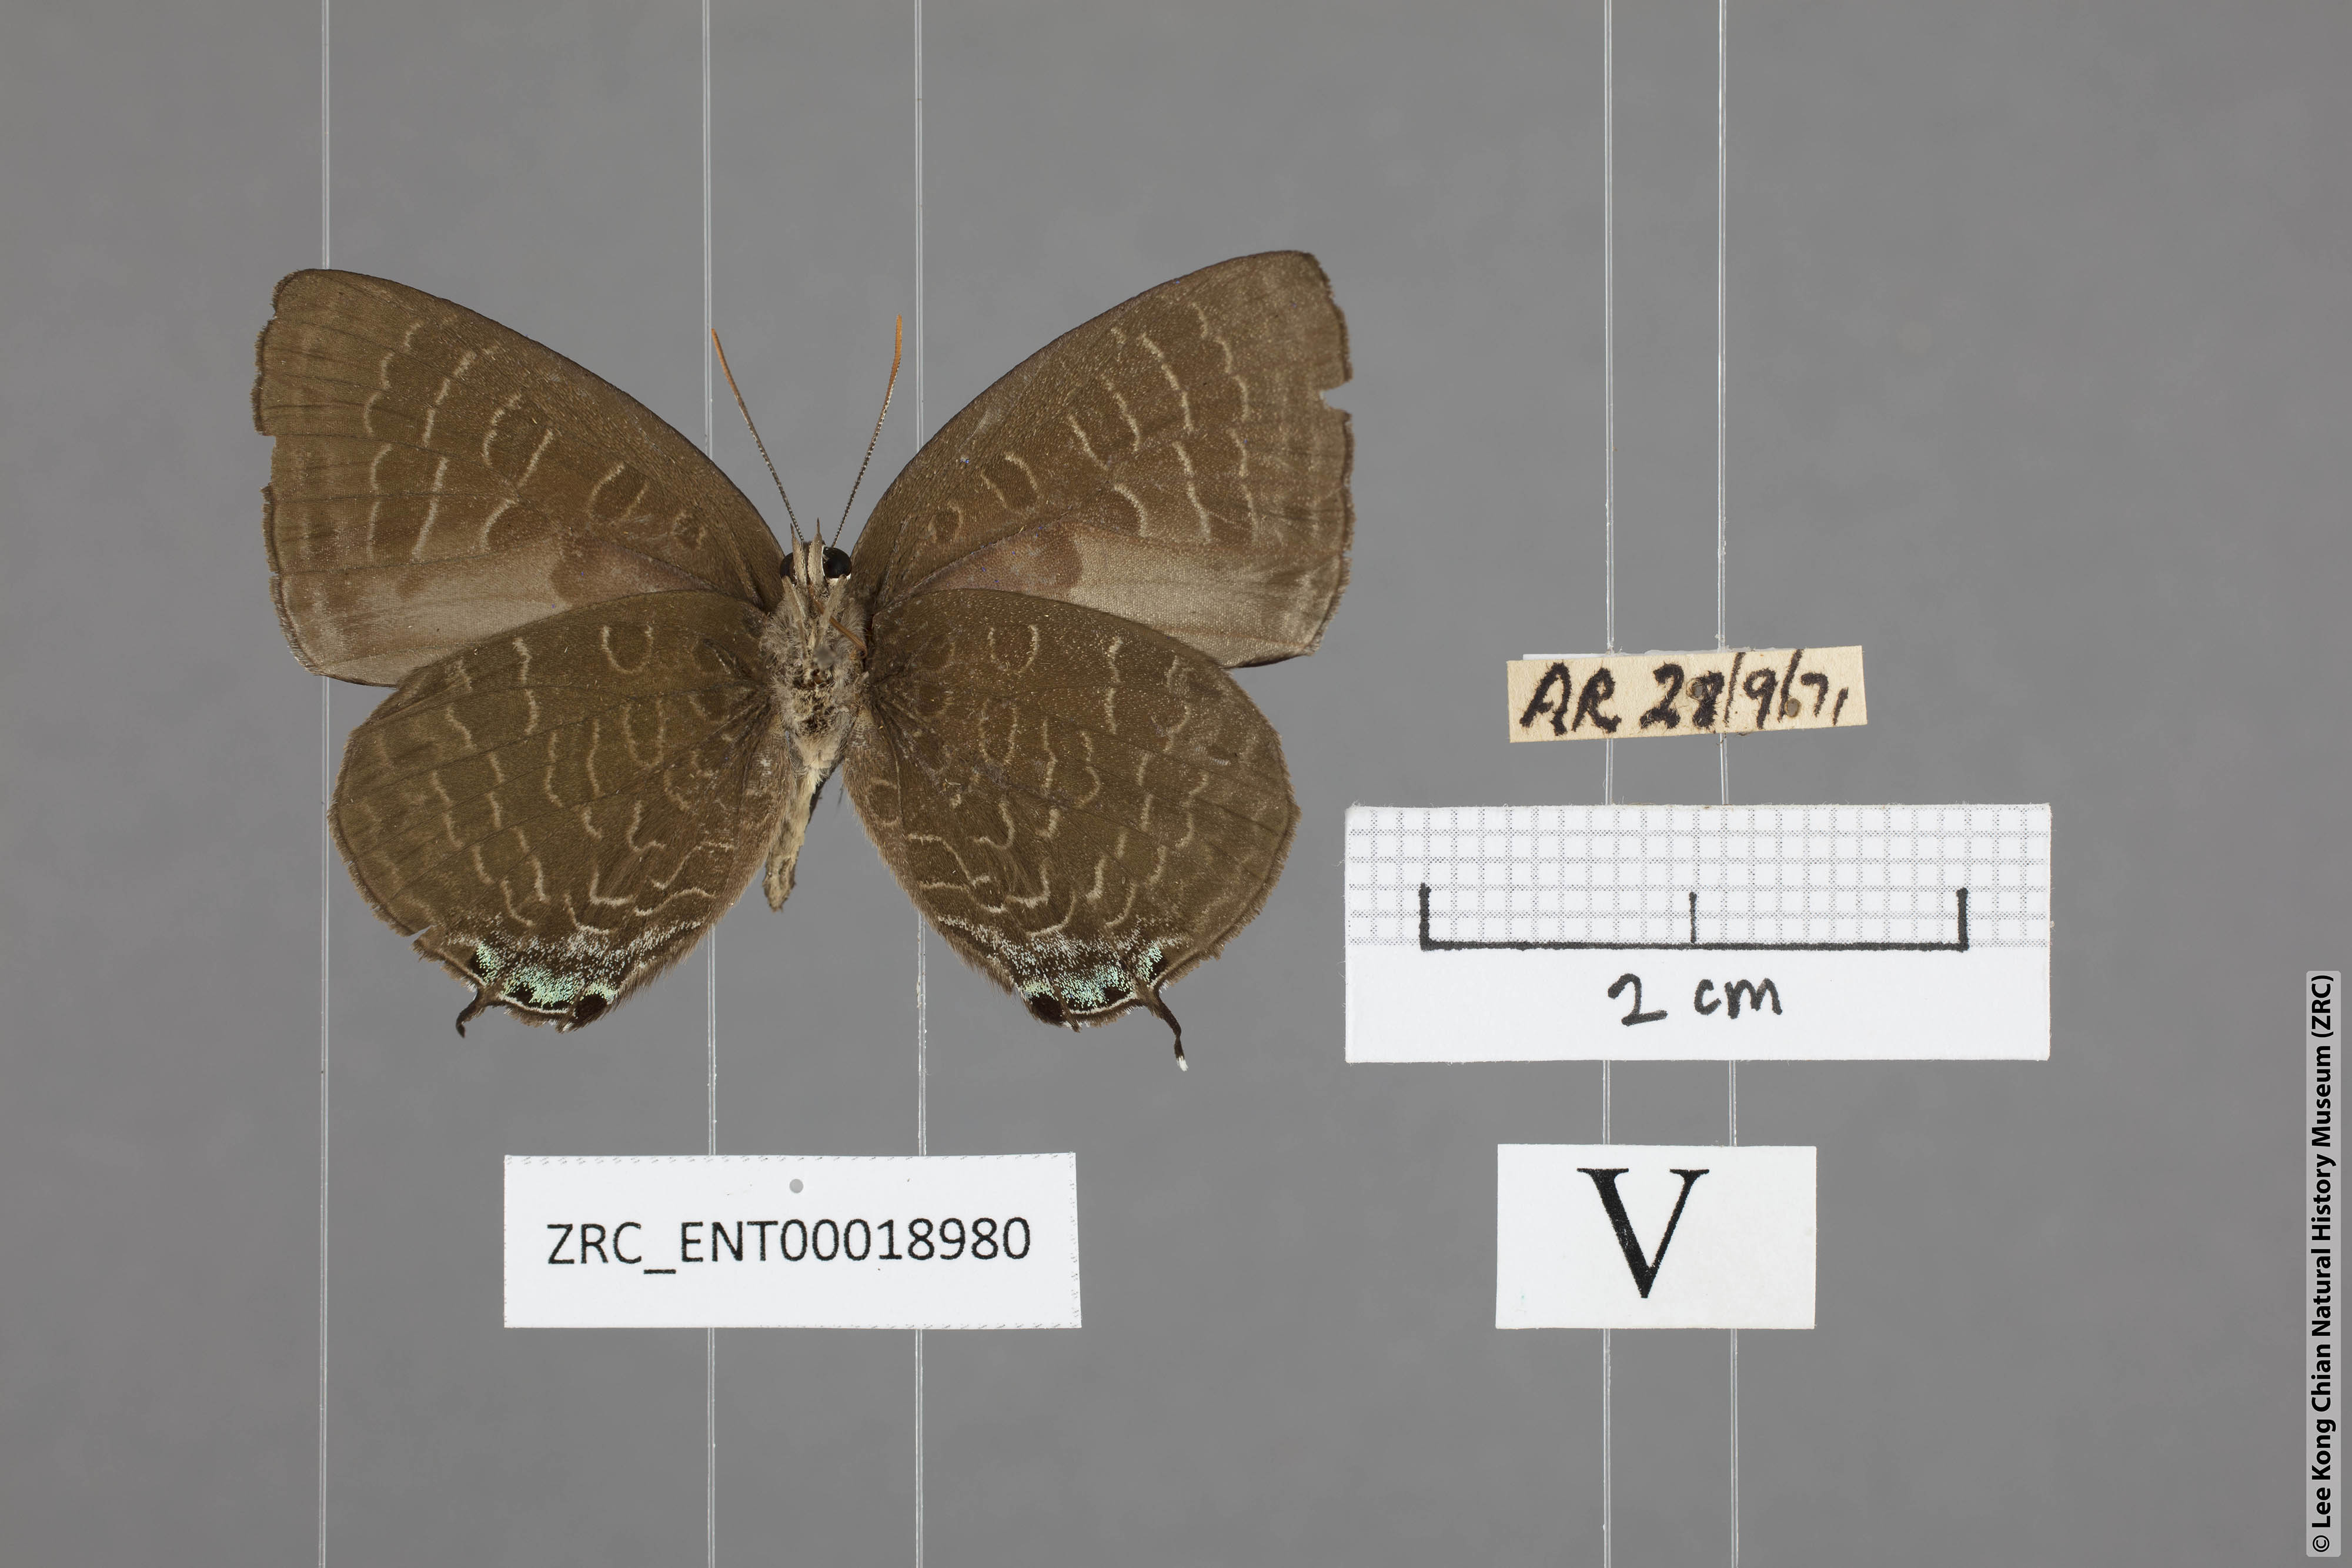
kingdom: Animalia
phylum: Arthropoda
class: Insecta
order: Lepidoptera
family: Lycaenidae
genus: Arhopala
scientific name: Arhopala ace
